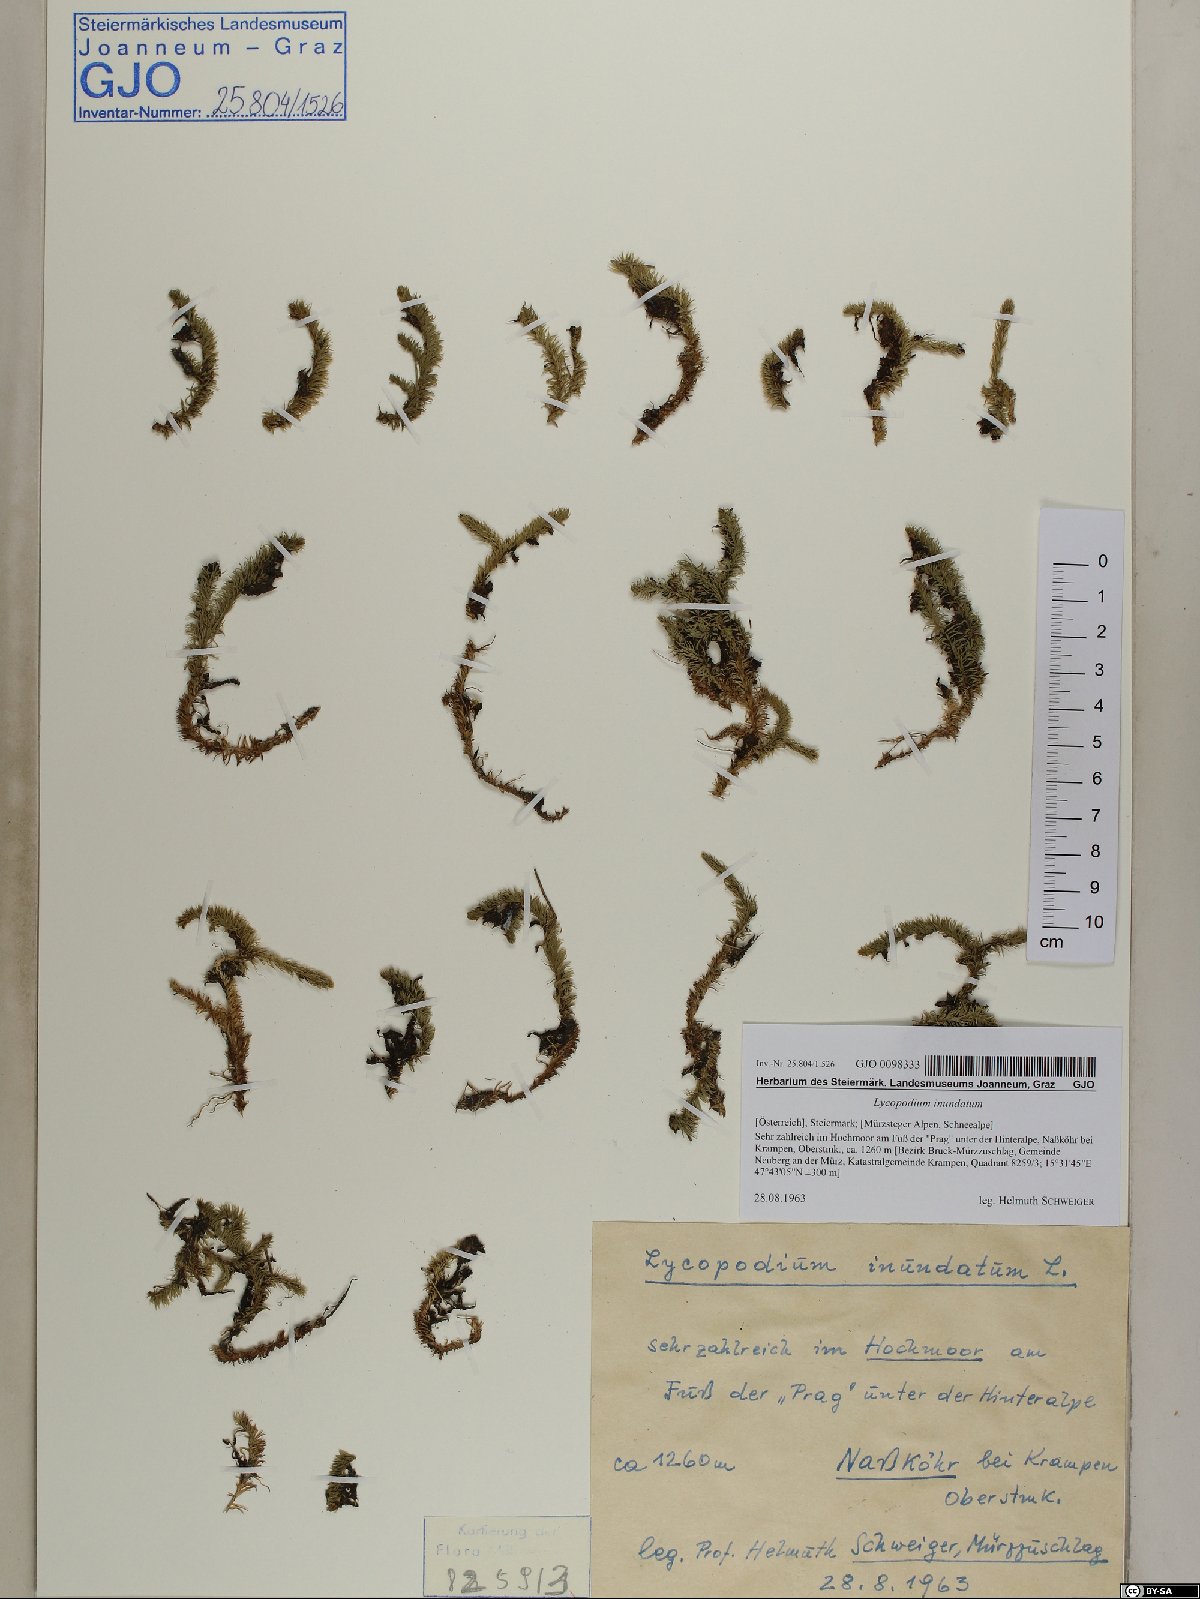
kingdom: Plantae
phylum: Tracheophyta
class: Lycopodiopsida
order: Lycopodiales
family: Lycopodiaceae
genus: Lycopodiella
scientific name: Lycopodiella inundata
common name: Marsh clubmoss
